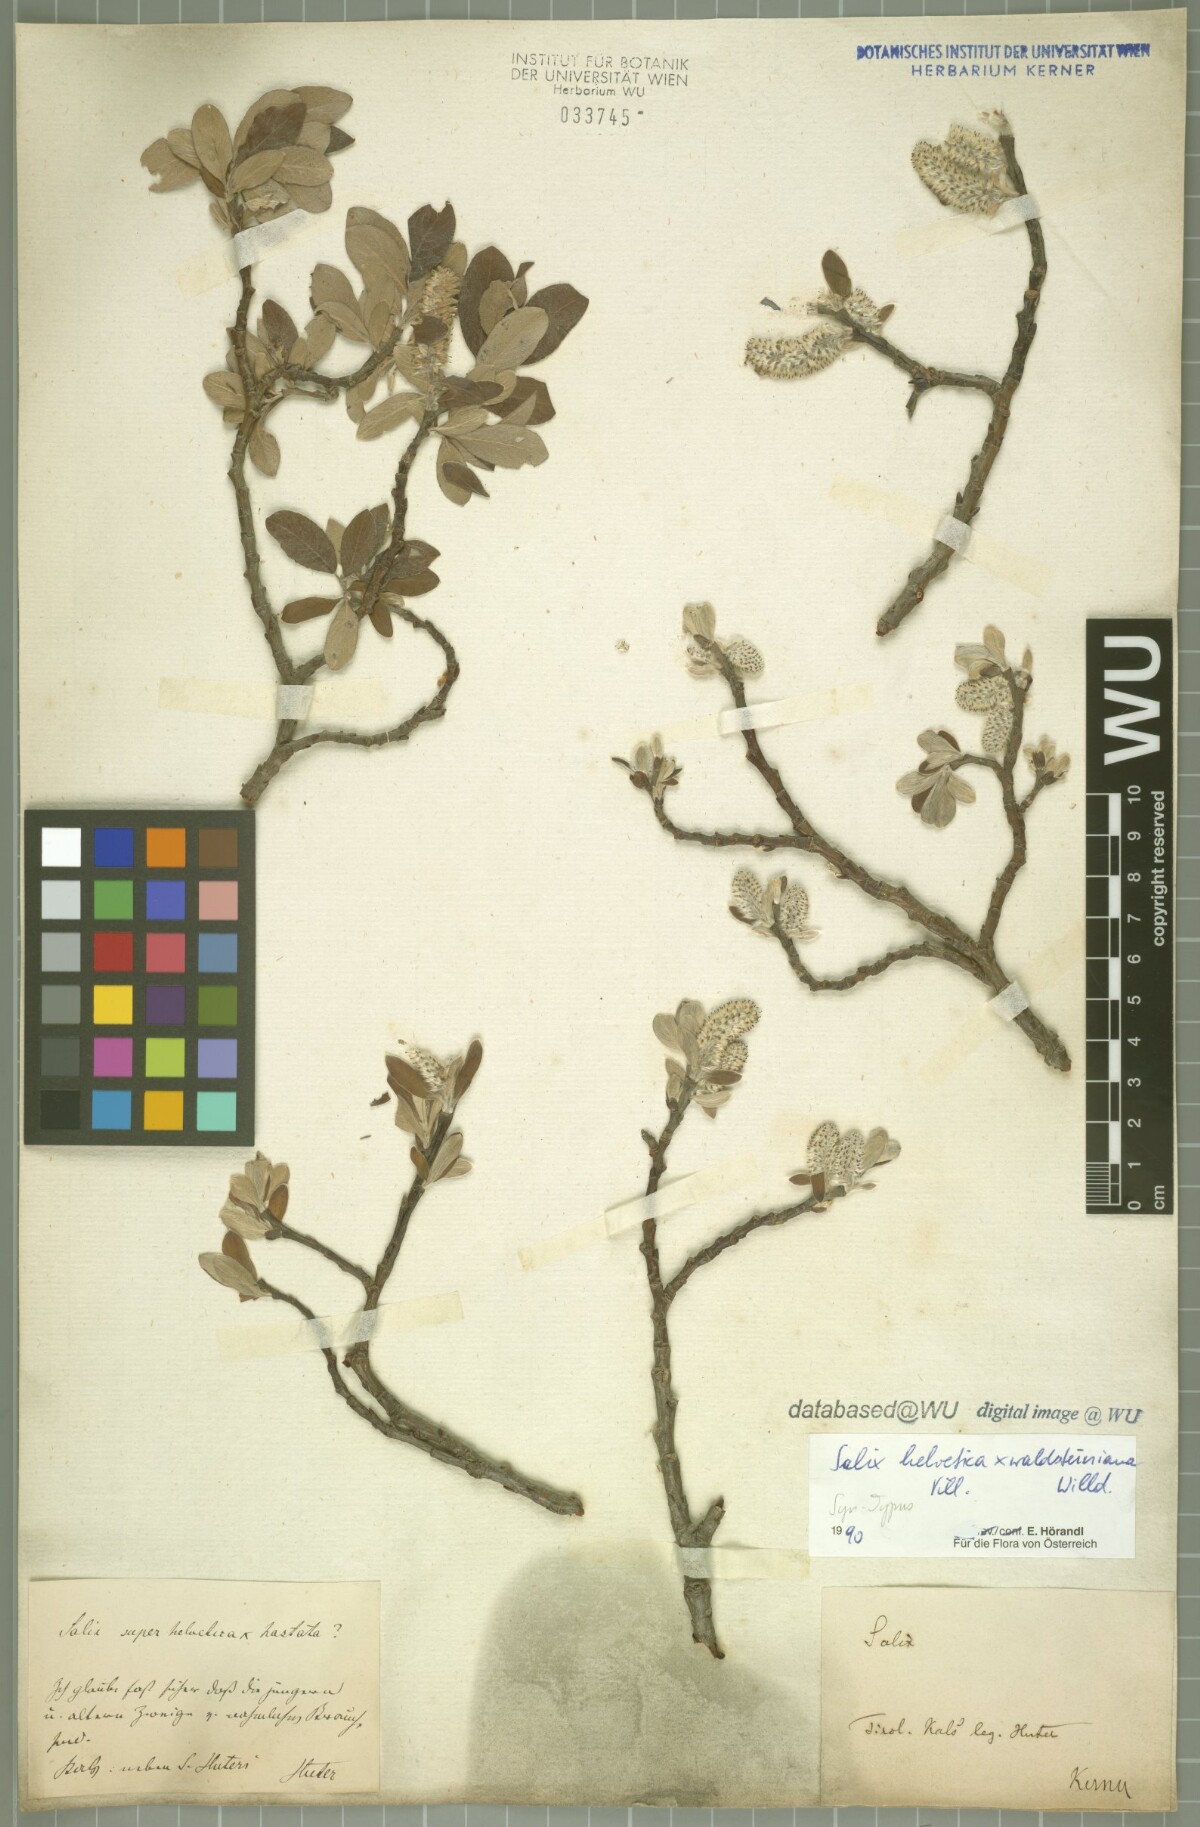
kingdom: Plantae
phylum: Tracheophyta
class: Magnoliopsida
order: Malpighiales
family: Salicaceae
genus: Salix
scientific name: Salix lapponum
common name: Downy willow
